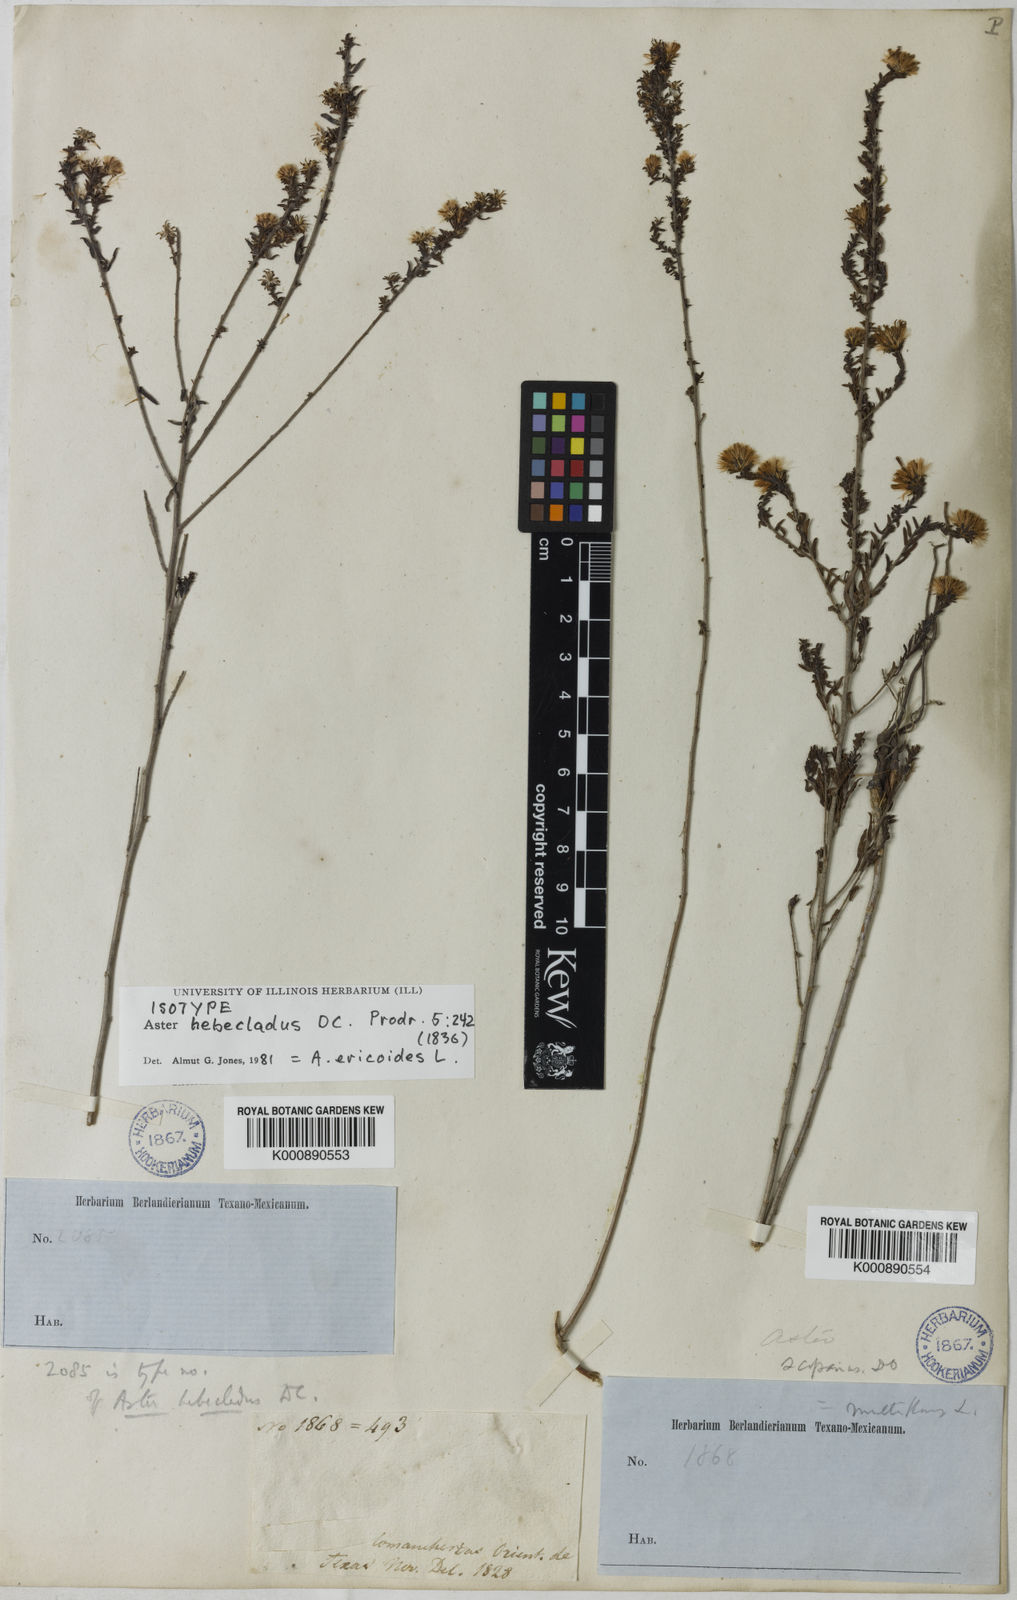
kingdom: Plantae
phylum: Tracheophyta
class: Magnoliopsida
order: Asterales
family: Asteraceae
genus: Aster
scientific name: Aster
